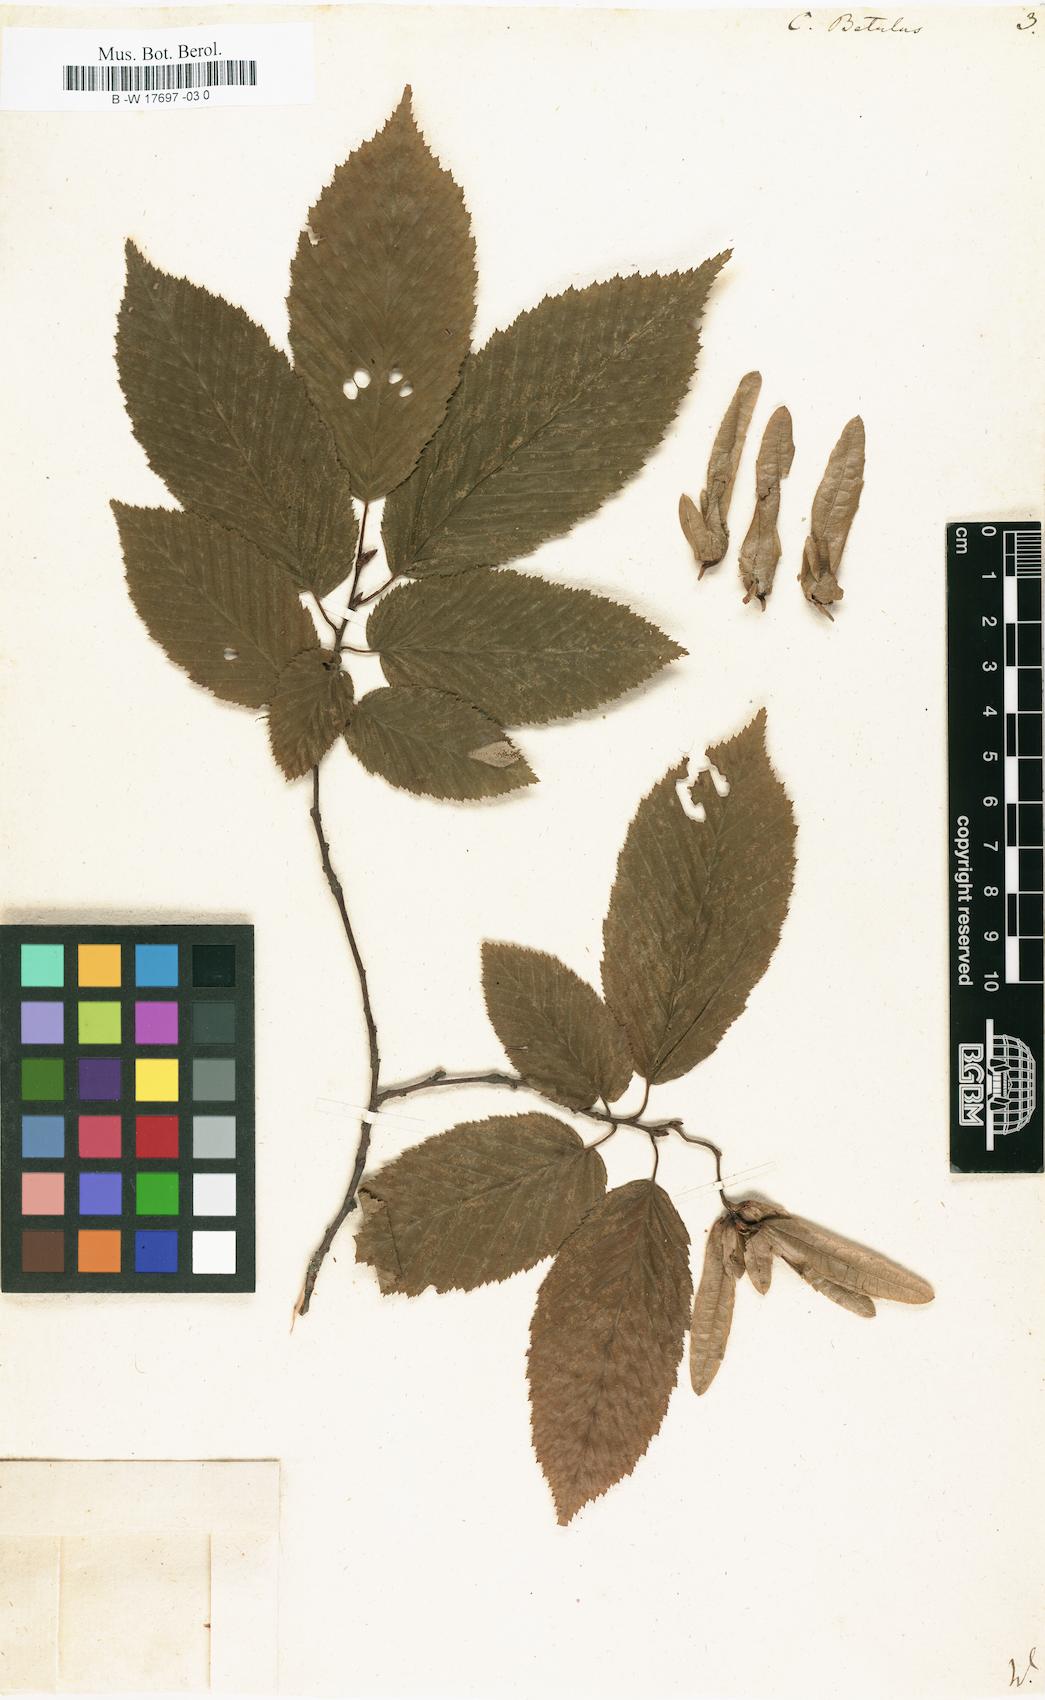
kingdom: Plantae
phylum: Tracheophyta
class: Magnoliopsida
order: Fagales
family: Betulaceae
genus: Carpinus
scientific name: Carpinus betulus
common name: Hornbeam
